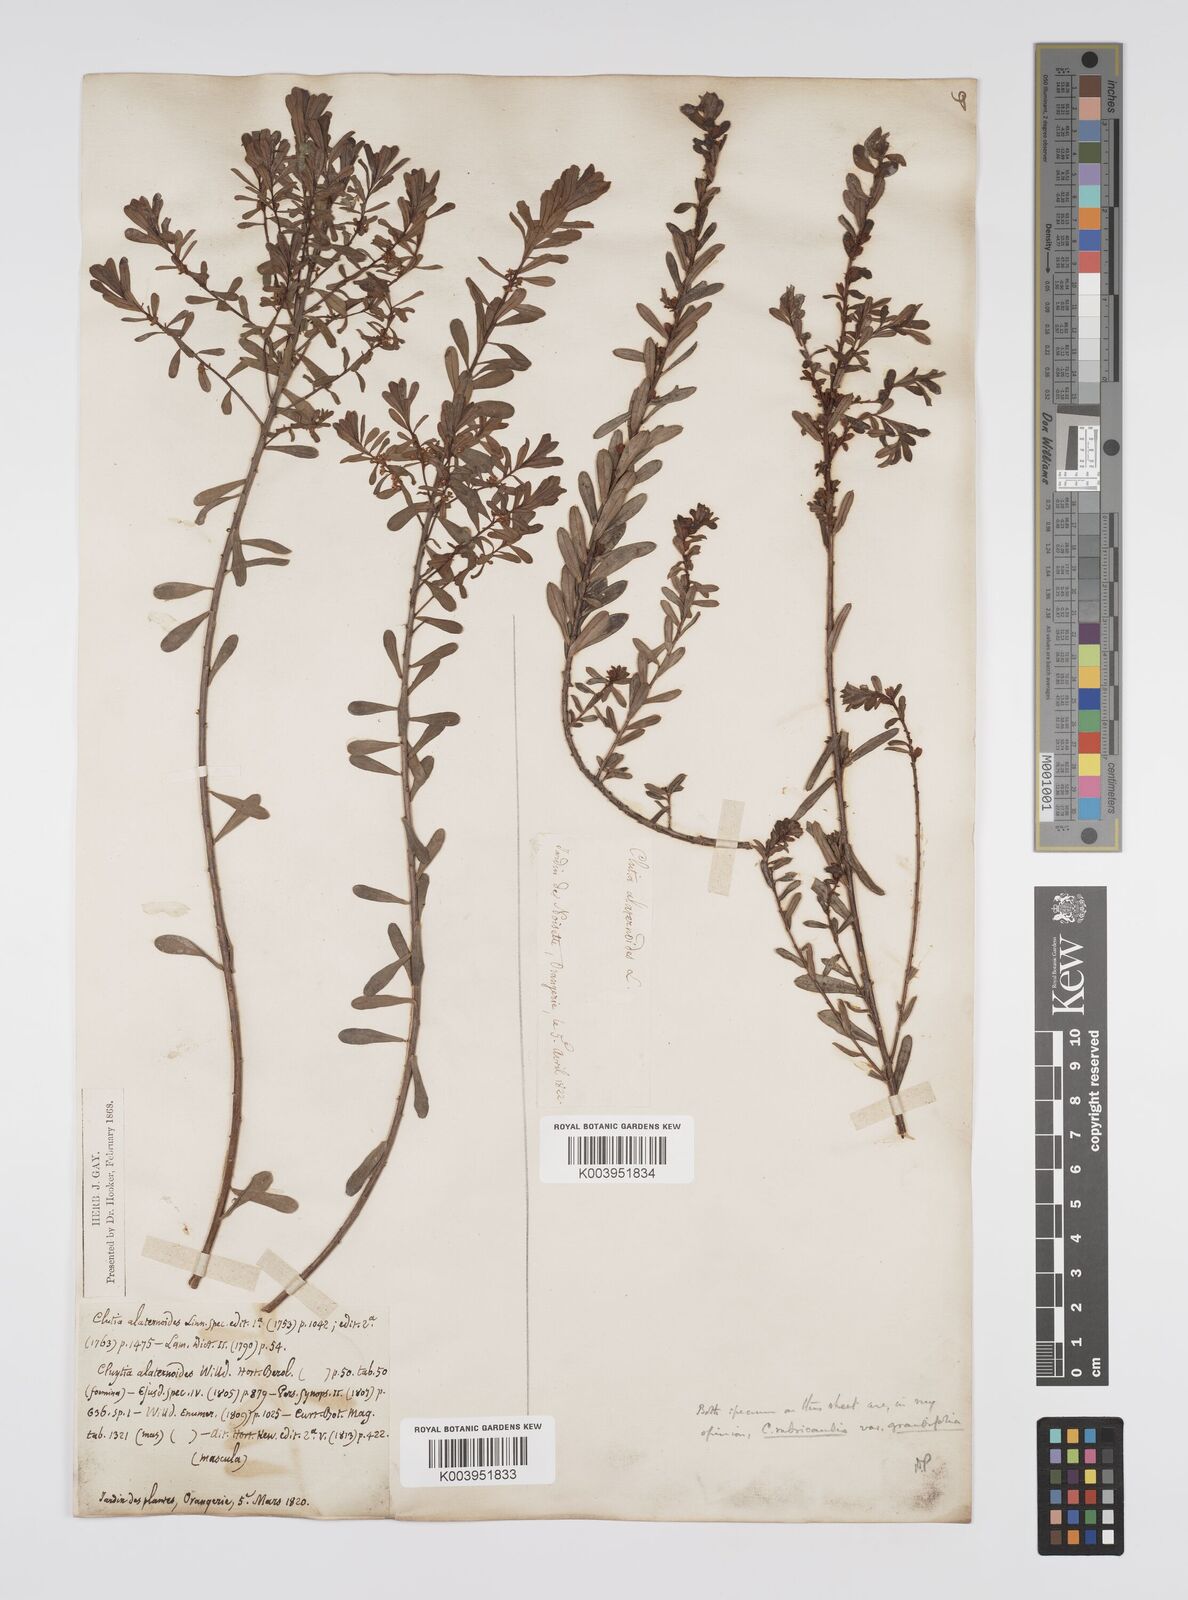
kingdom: Plantae
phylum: Tracheophyta
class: Magnoliopsida
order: Malpighiales
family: Peraceae
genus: Clutia
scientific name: Clutia rubricaulis
